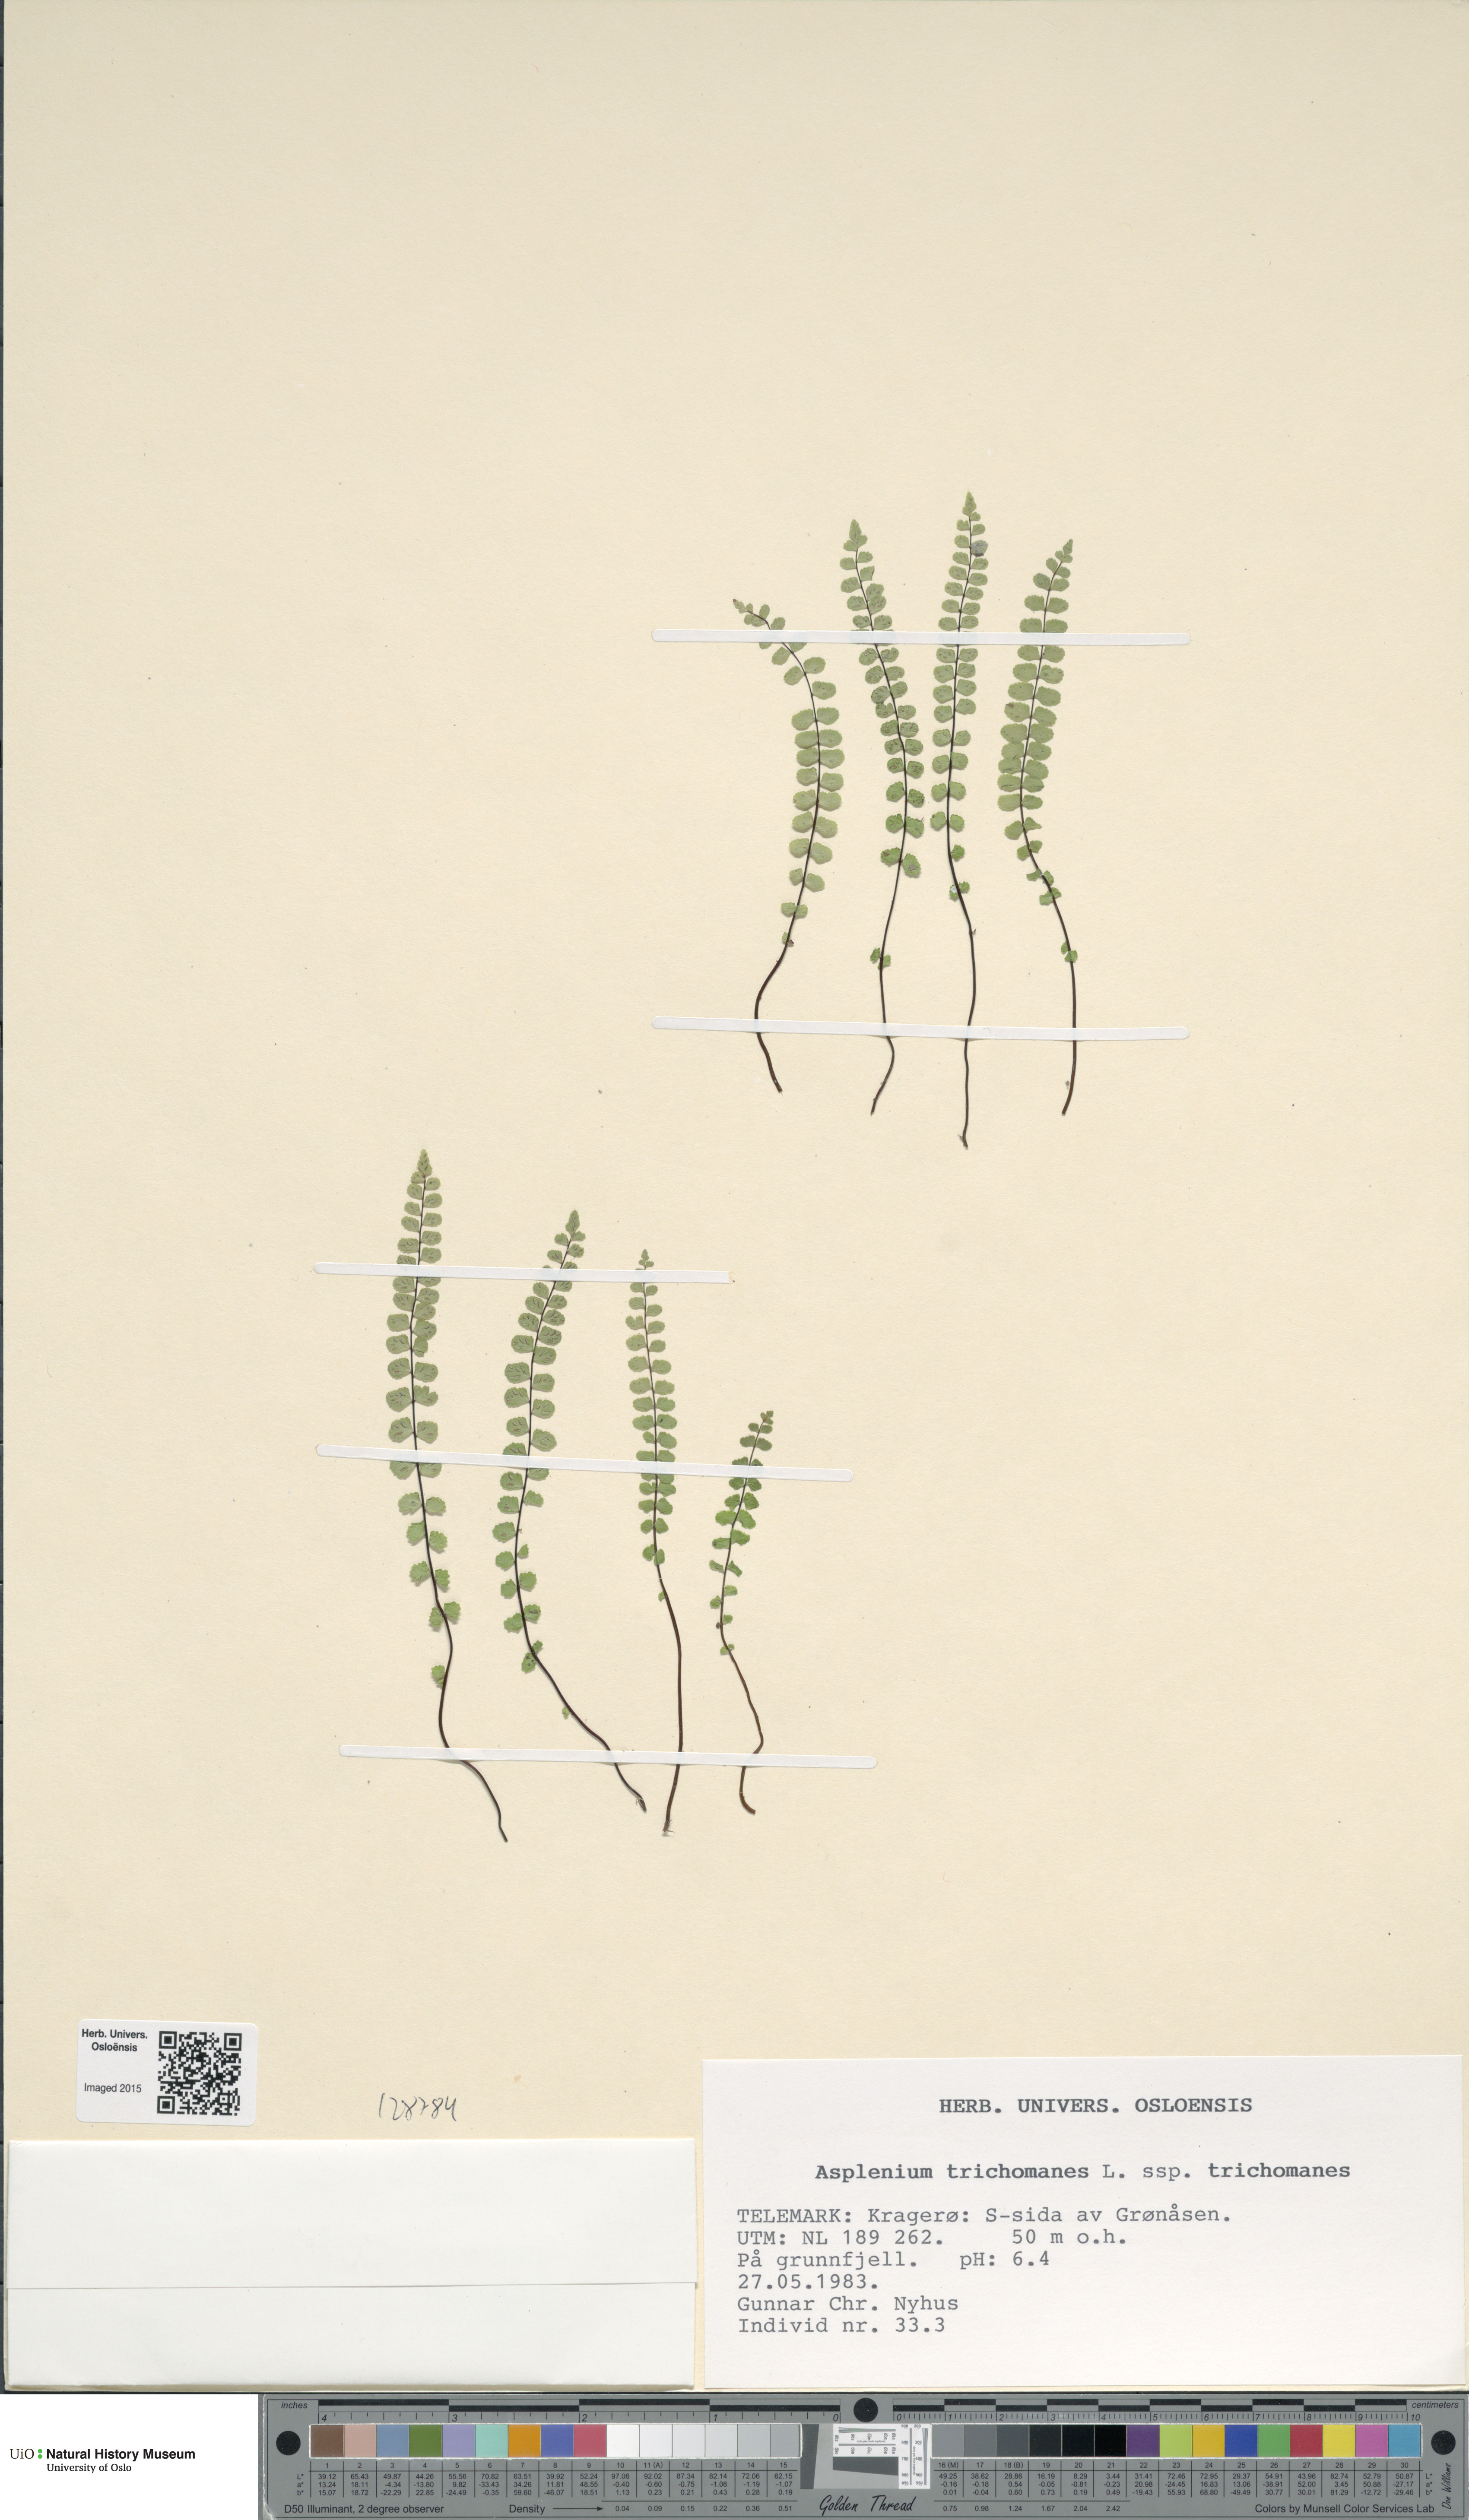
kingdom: Plantae
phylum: Tracheophyta
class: Polypodiopsida
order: Polypodiales
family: Aspleniaceae
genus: Asplenium
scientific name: Asplenium trichomanes
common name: Maidenhair spleenwort
